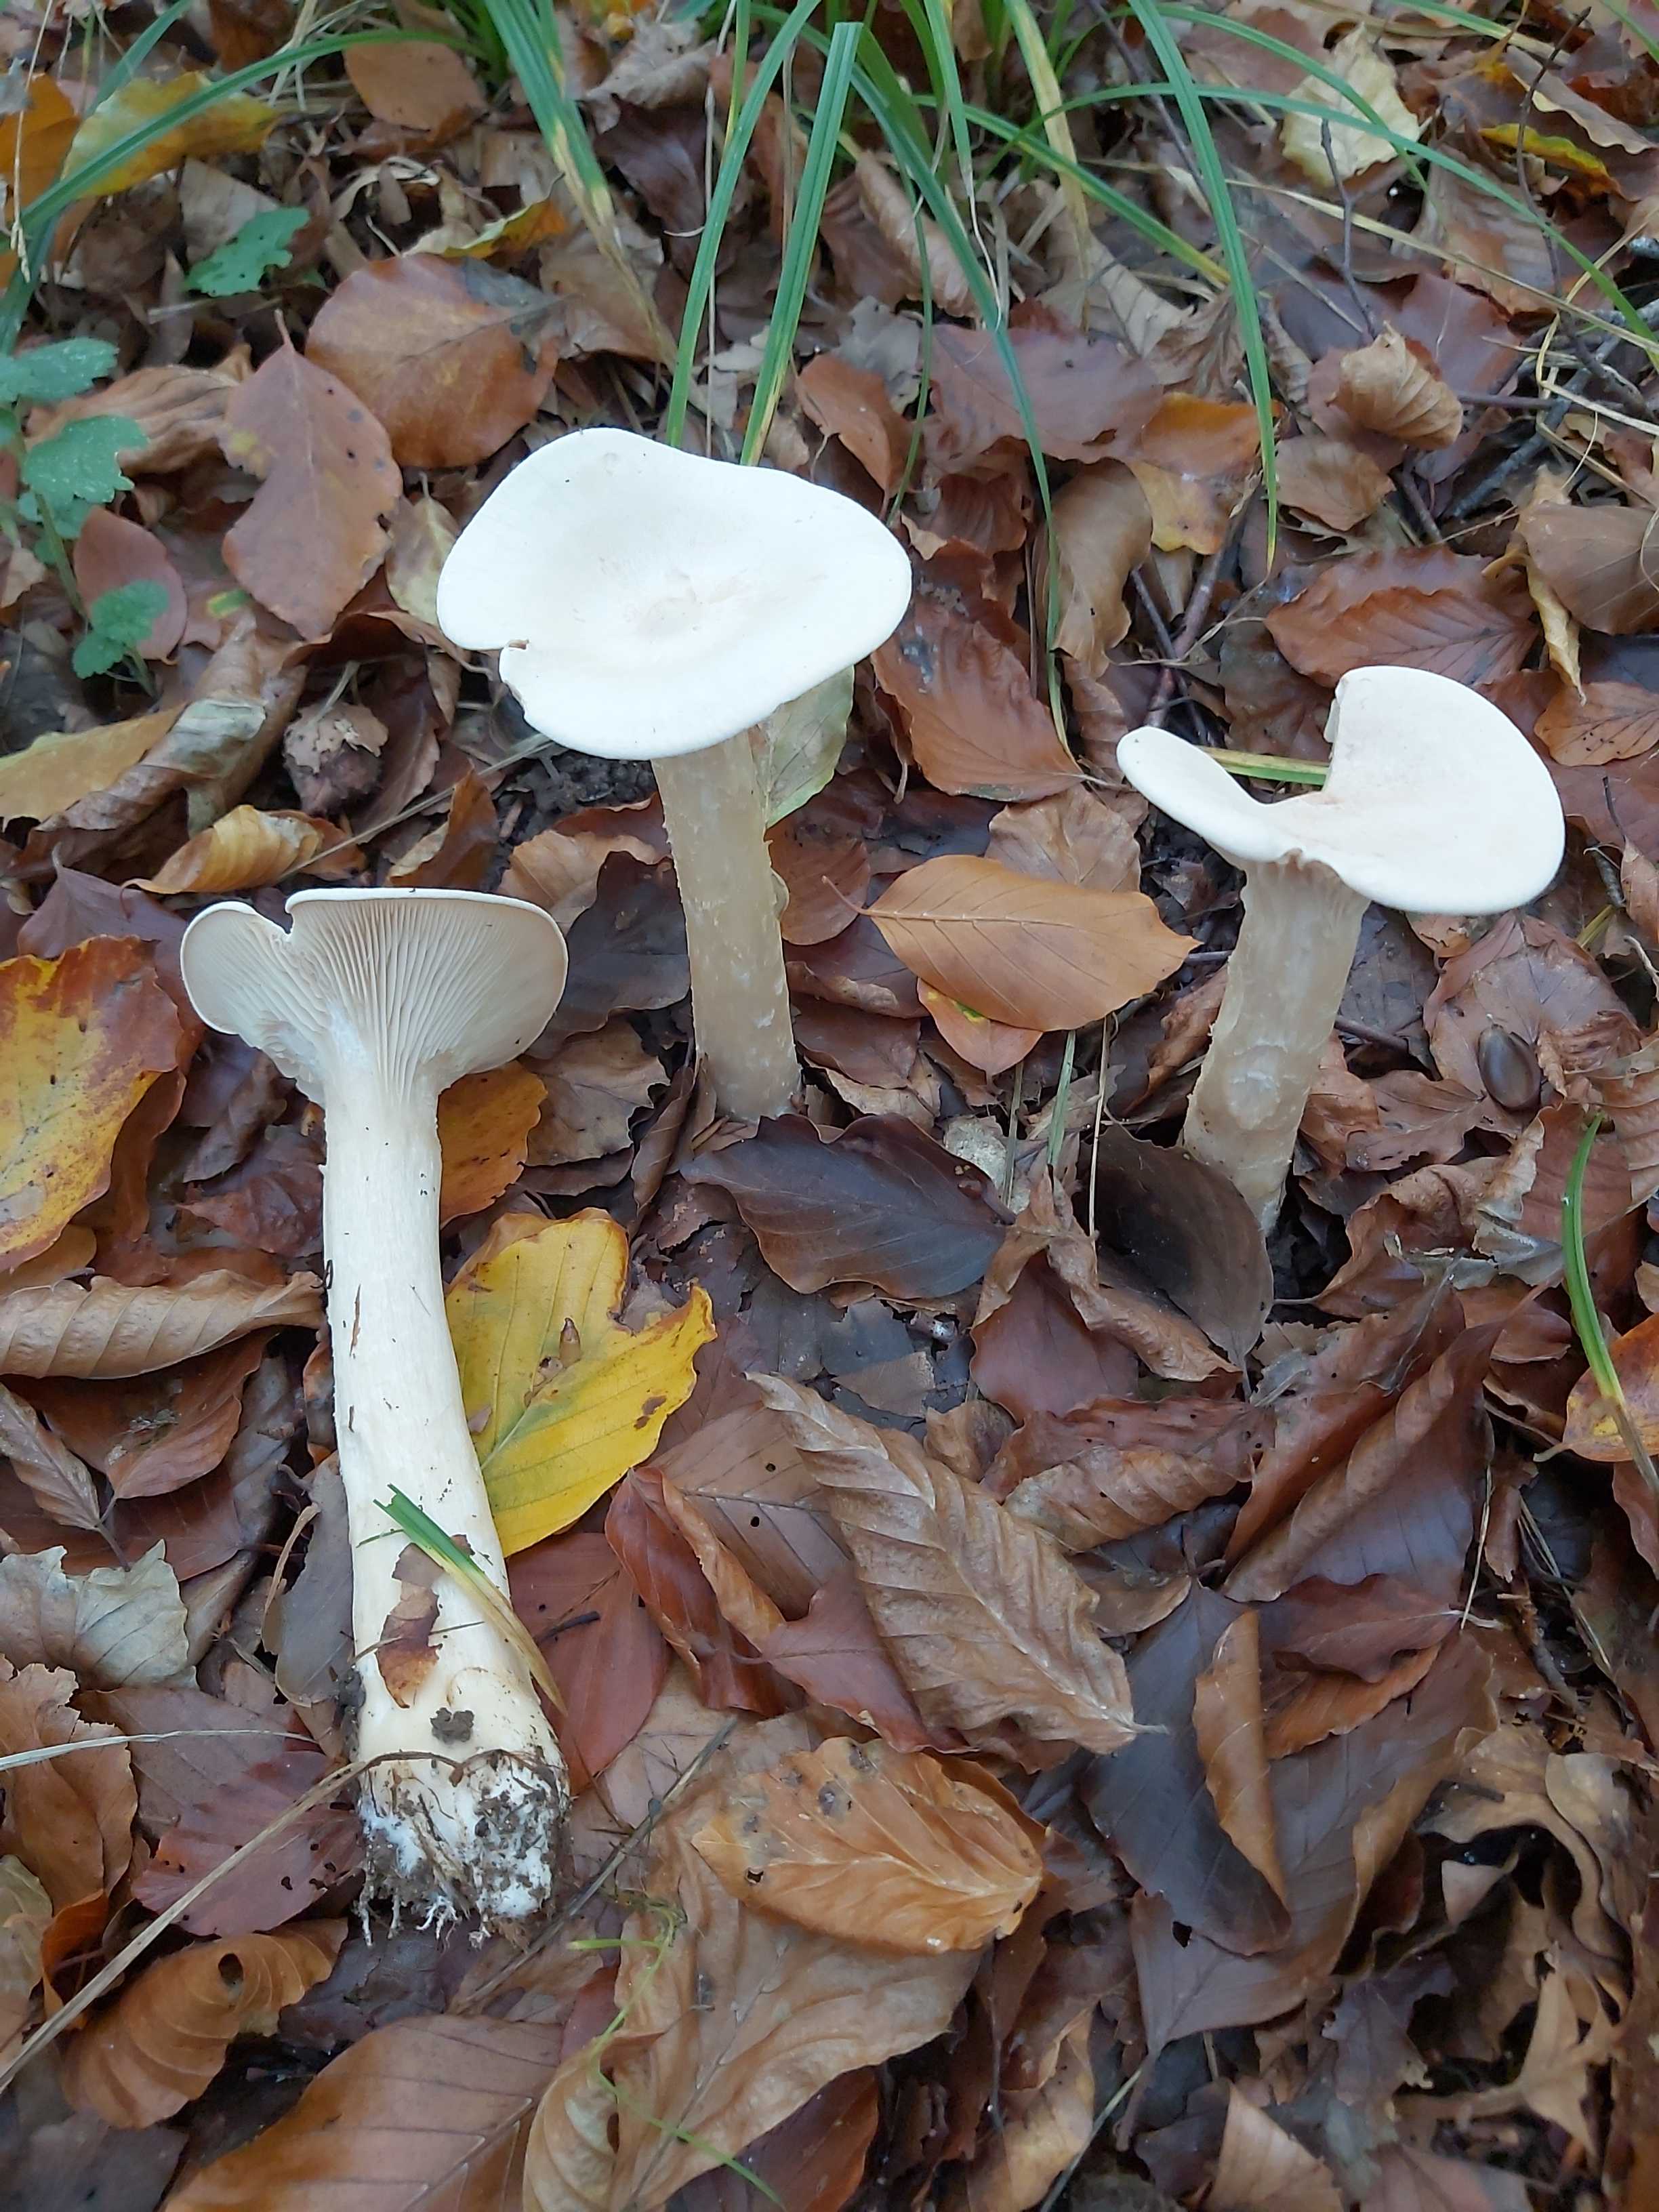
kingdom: Fungi
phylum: Basidiomycota
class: Agaricomycetes
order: Agaricales
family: Tricholomataceae
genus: Infundibulicybe
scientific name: Infundibulicybe geotropa
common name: stor tragthat
